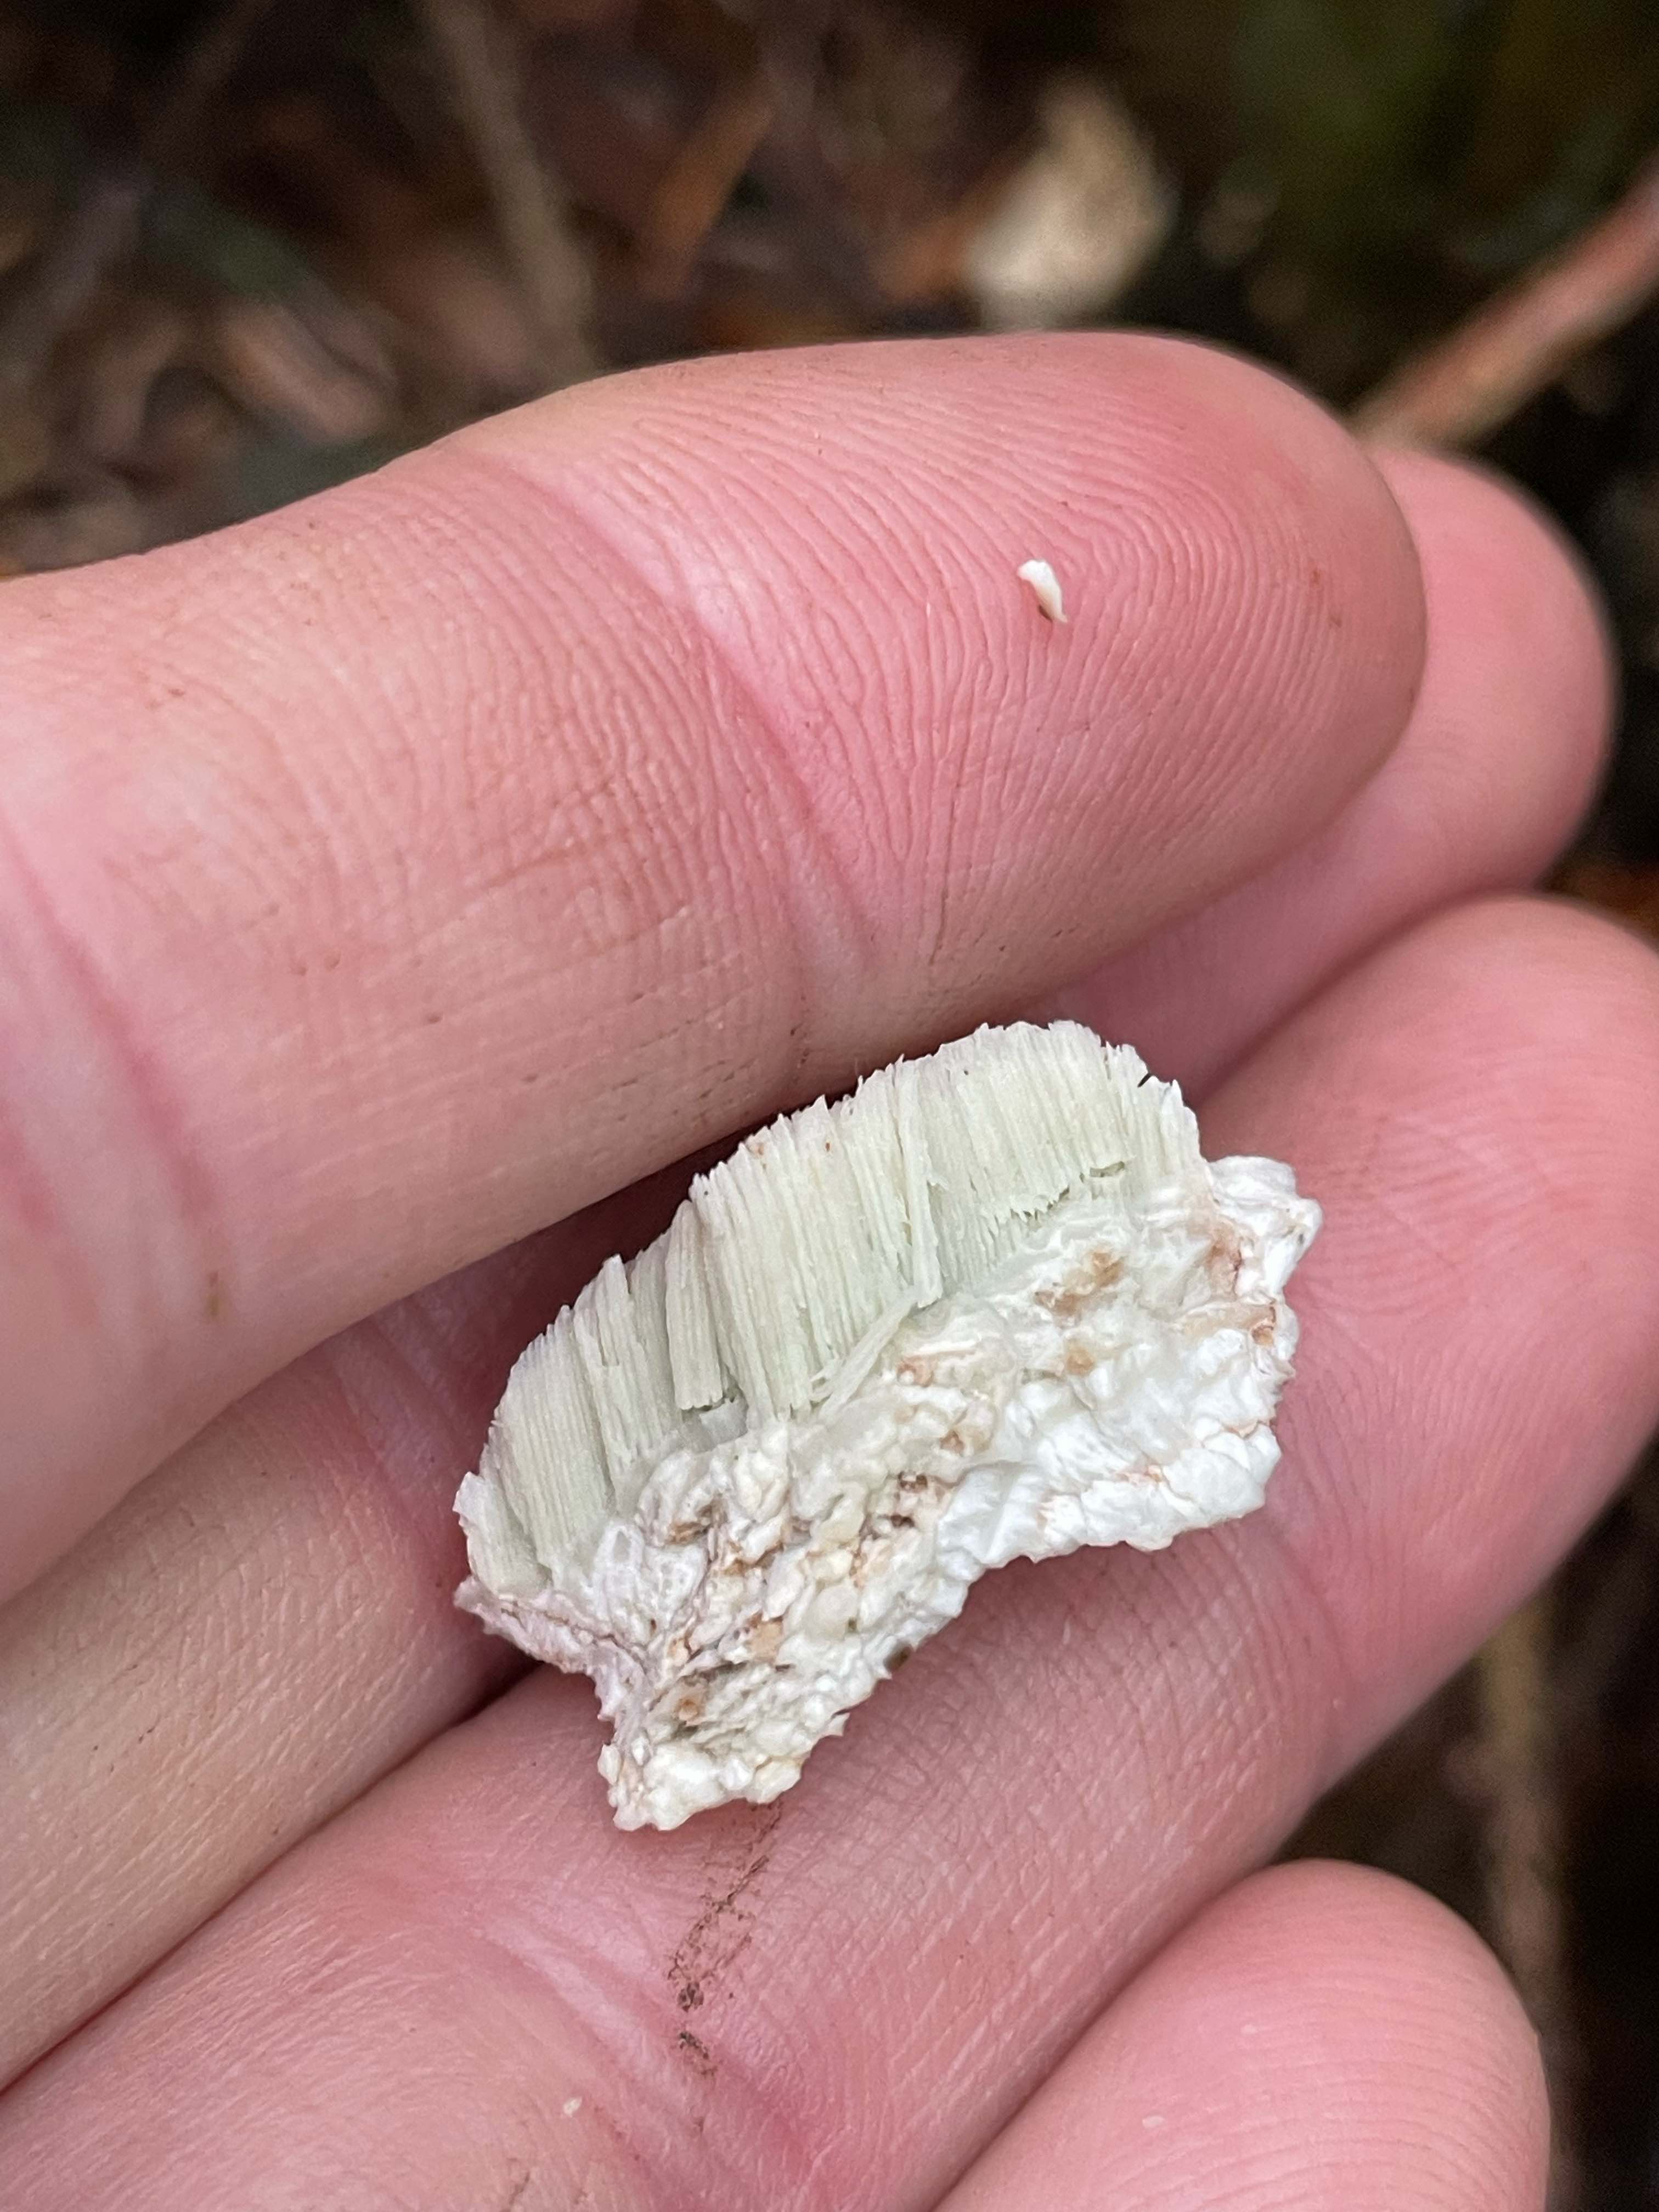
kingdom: Fungi
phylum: Basidiomycota
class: Agaricomycetes
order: Polyporales
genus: Calcipostia
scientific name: Calcipostia guttulata
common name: dråbe-kødporesvamp
